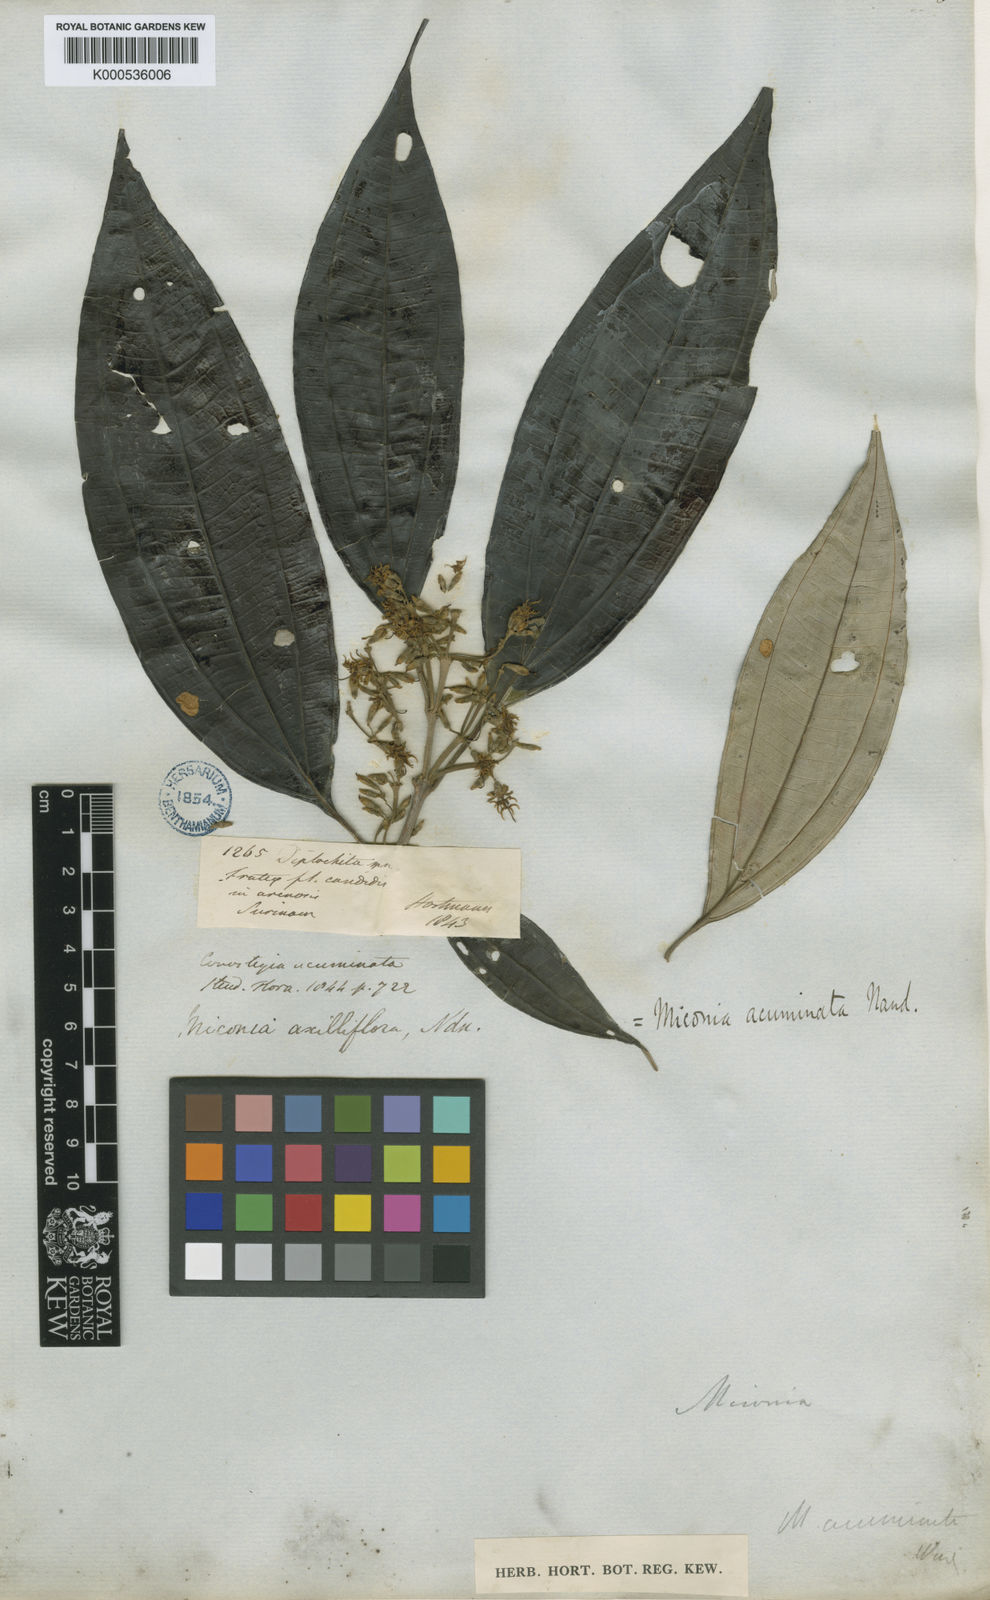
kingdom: Plantae
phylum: Tracheophyta
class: Magnoliopsida
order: Myrtales
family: Melastomataceae
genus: Miconia
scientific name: Miconia acuminata
